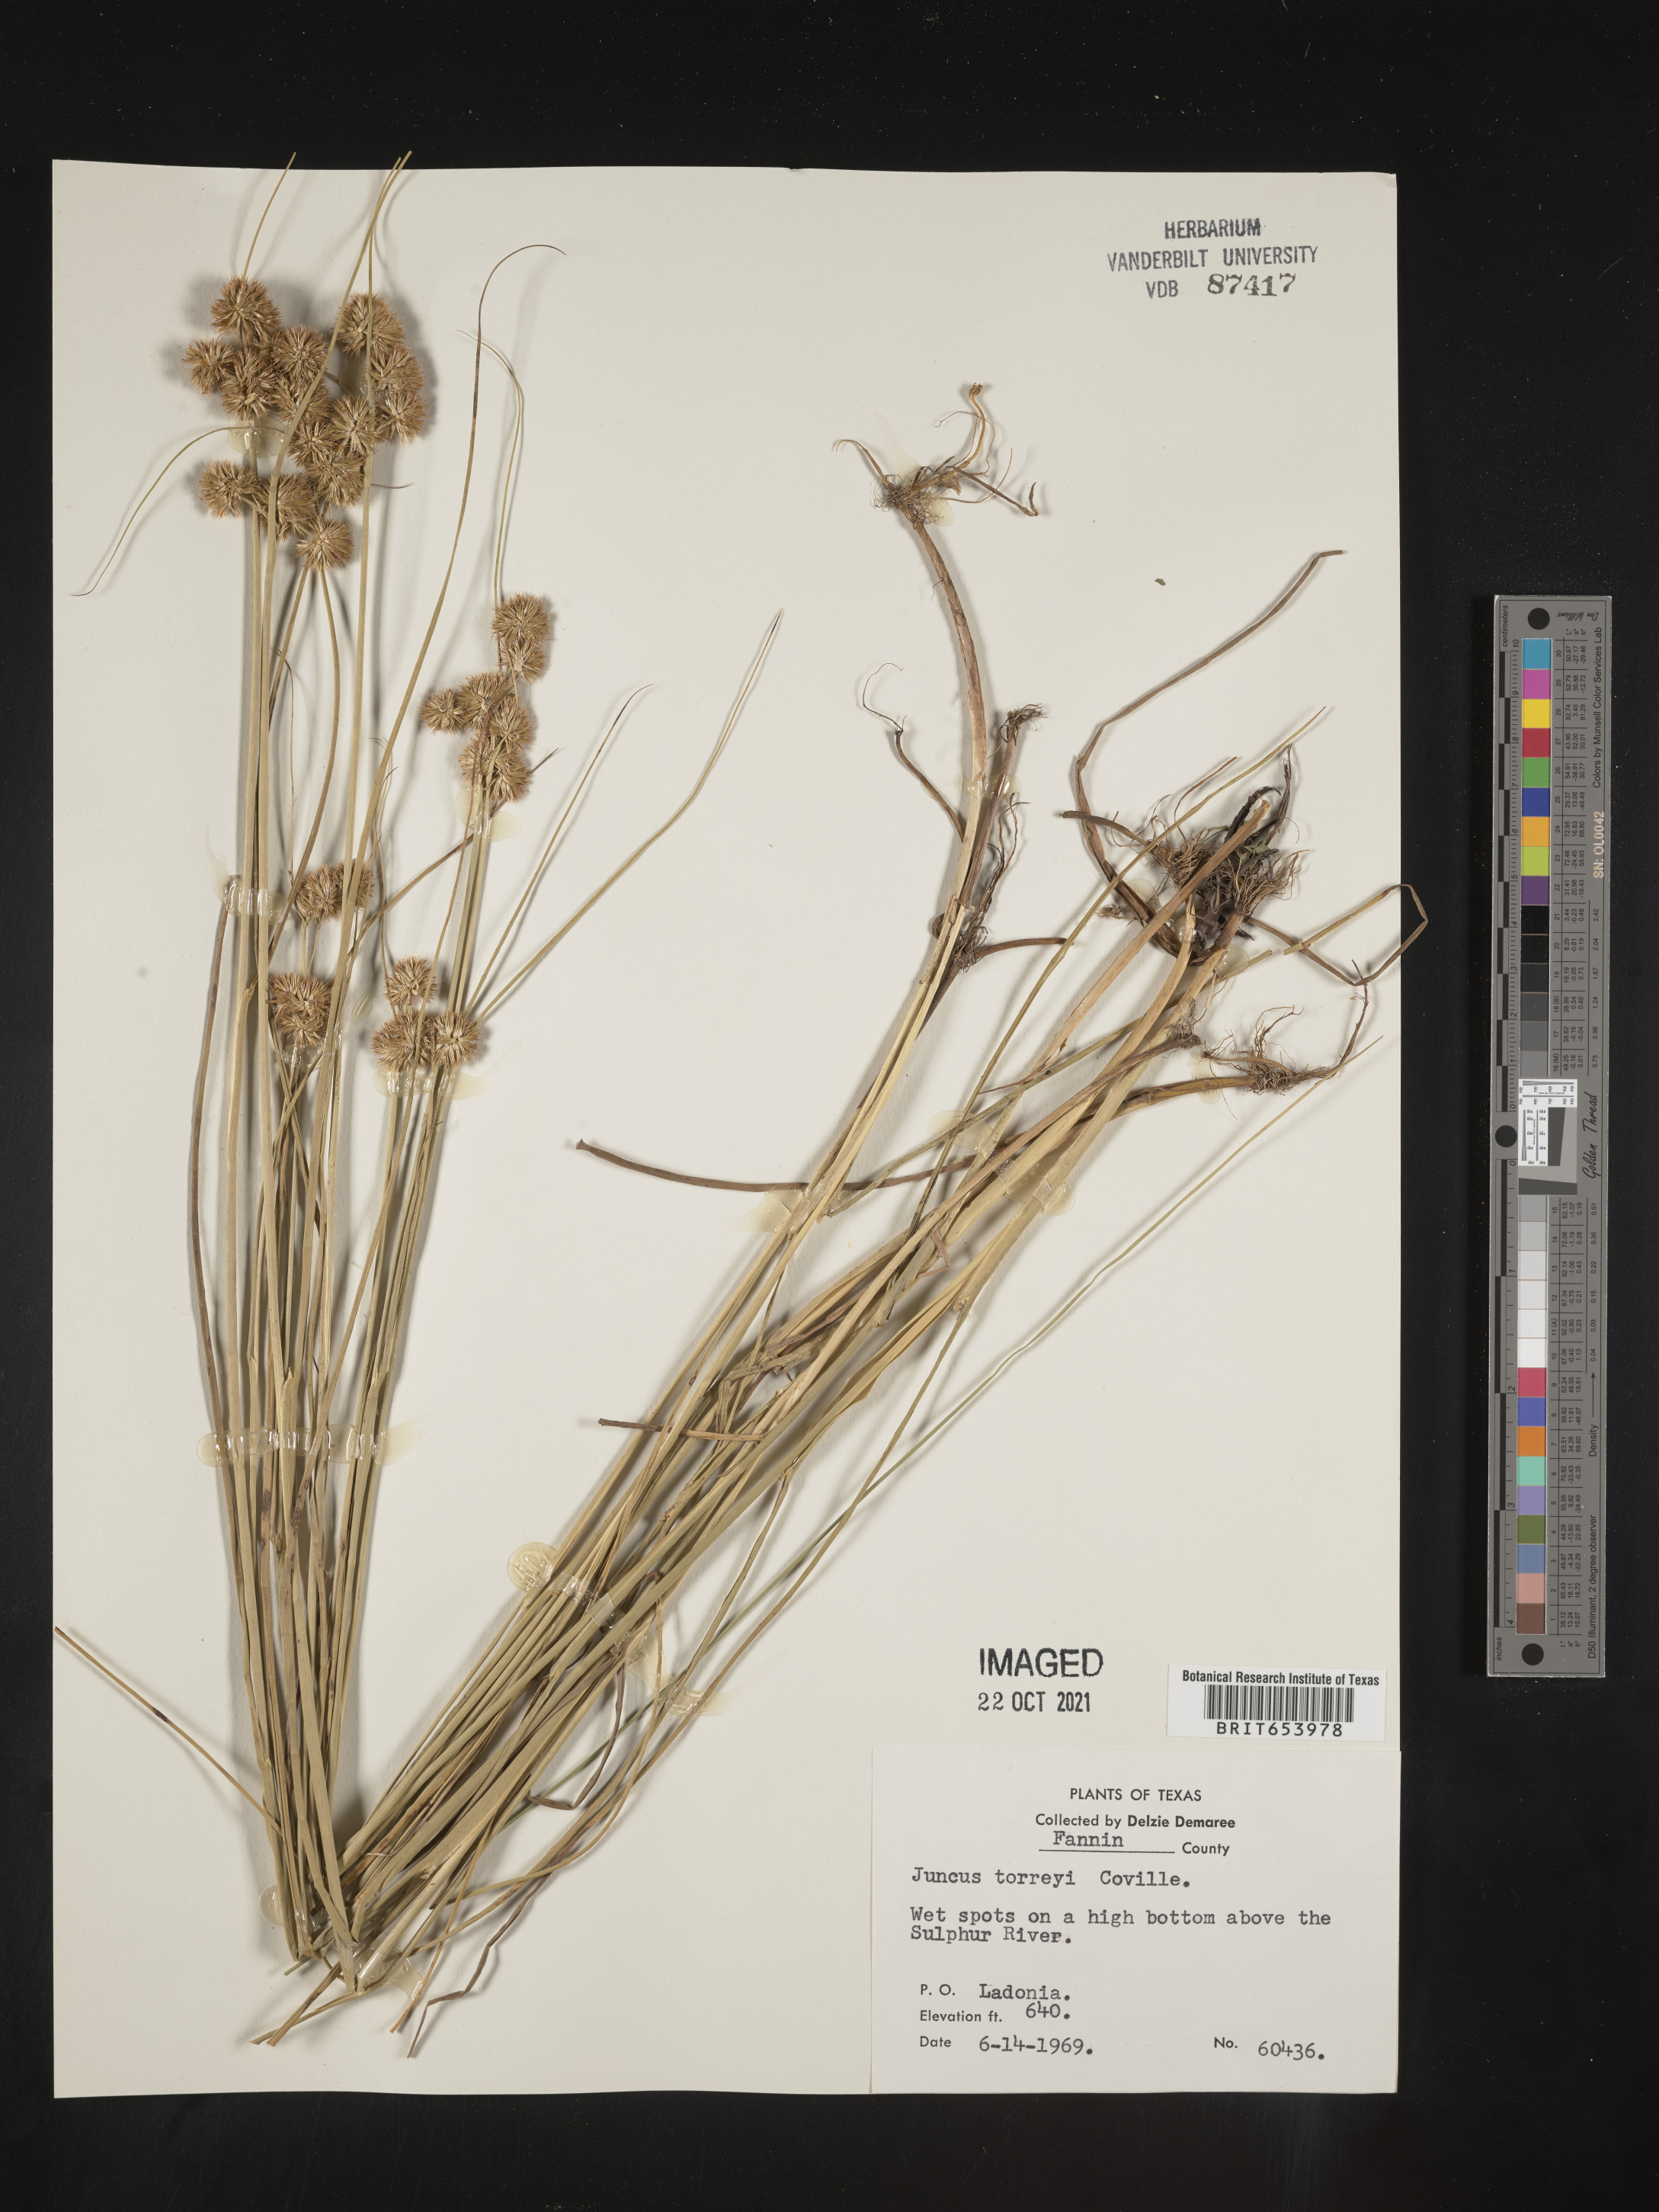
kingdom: Plantae
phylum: Tracheophyta
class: Liliopsida
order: Poales
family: Juncaceae
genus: Juncus
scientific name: Juncus torreyi
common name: Torrey's rush
